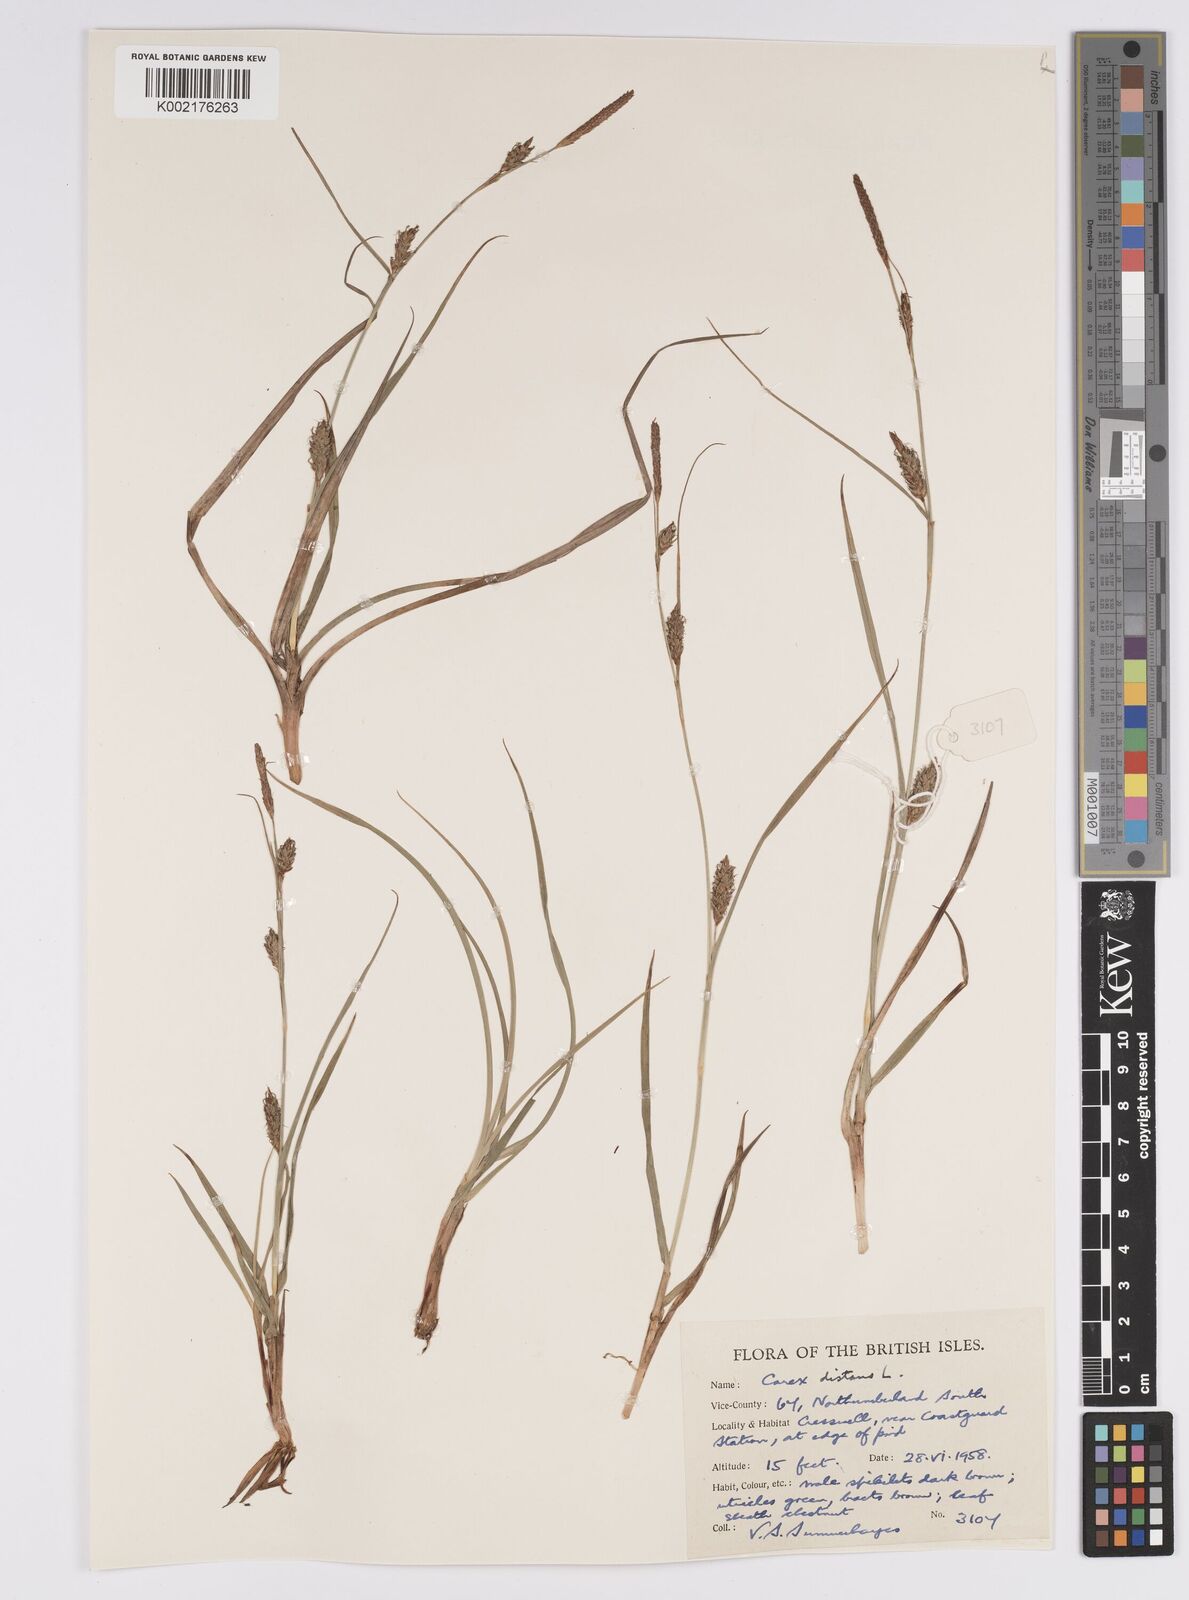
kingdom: Plantae
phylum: Tracheophyta
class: Liliopsida
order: Poales
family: Cyperaceae
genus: Carex
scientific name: Carex distans
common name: Distant sedge
